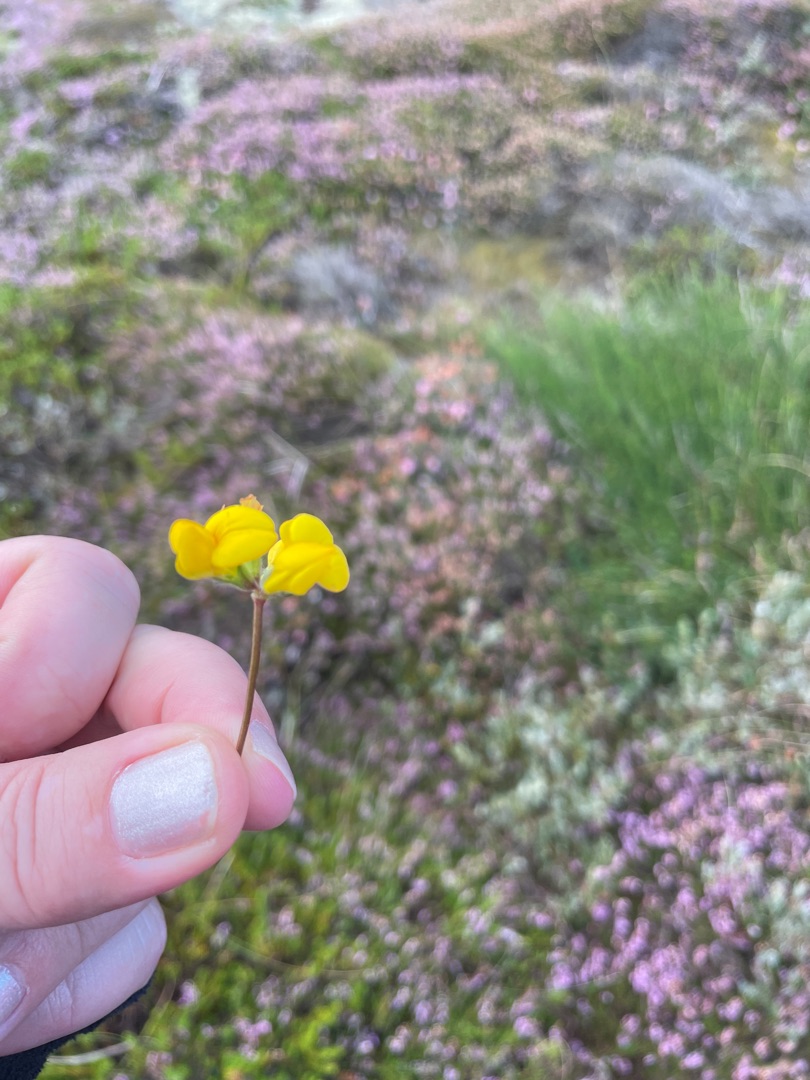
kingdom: Plantae
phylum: Tracheophyta
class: Magnoliopsida
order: Fabales
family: Fabaceae
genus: Lotus
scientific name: Lotus corniculatus
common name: Almindelig kællingetand
